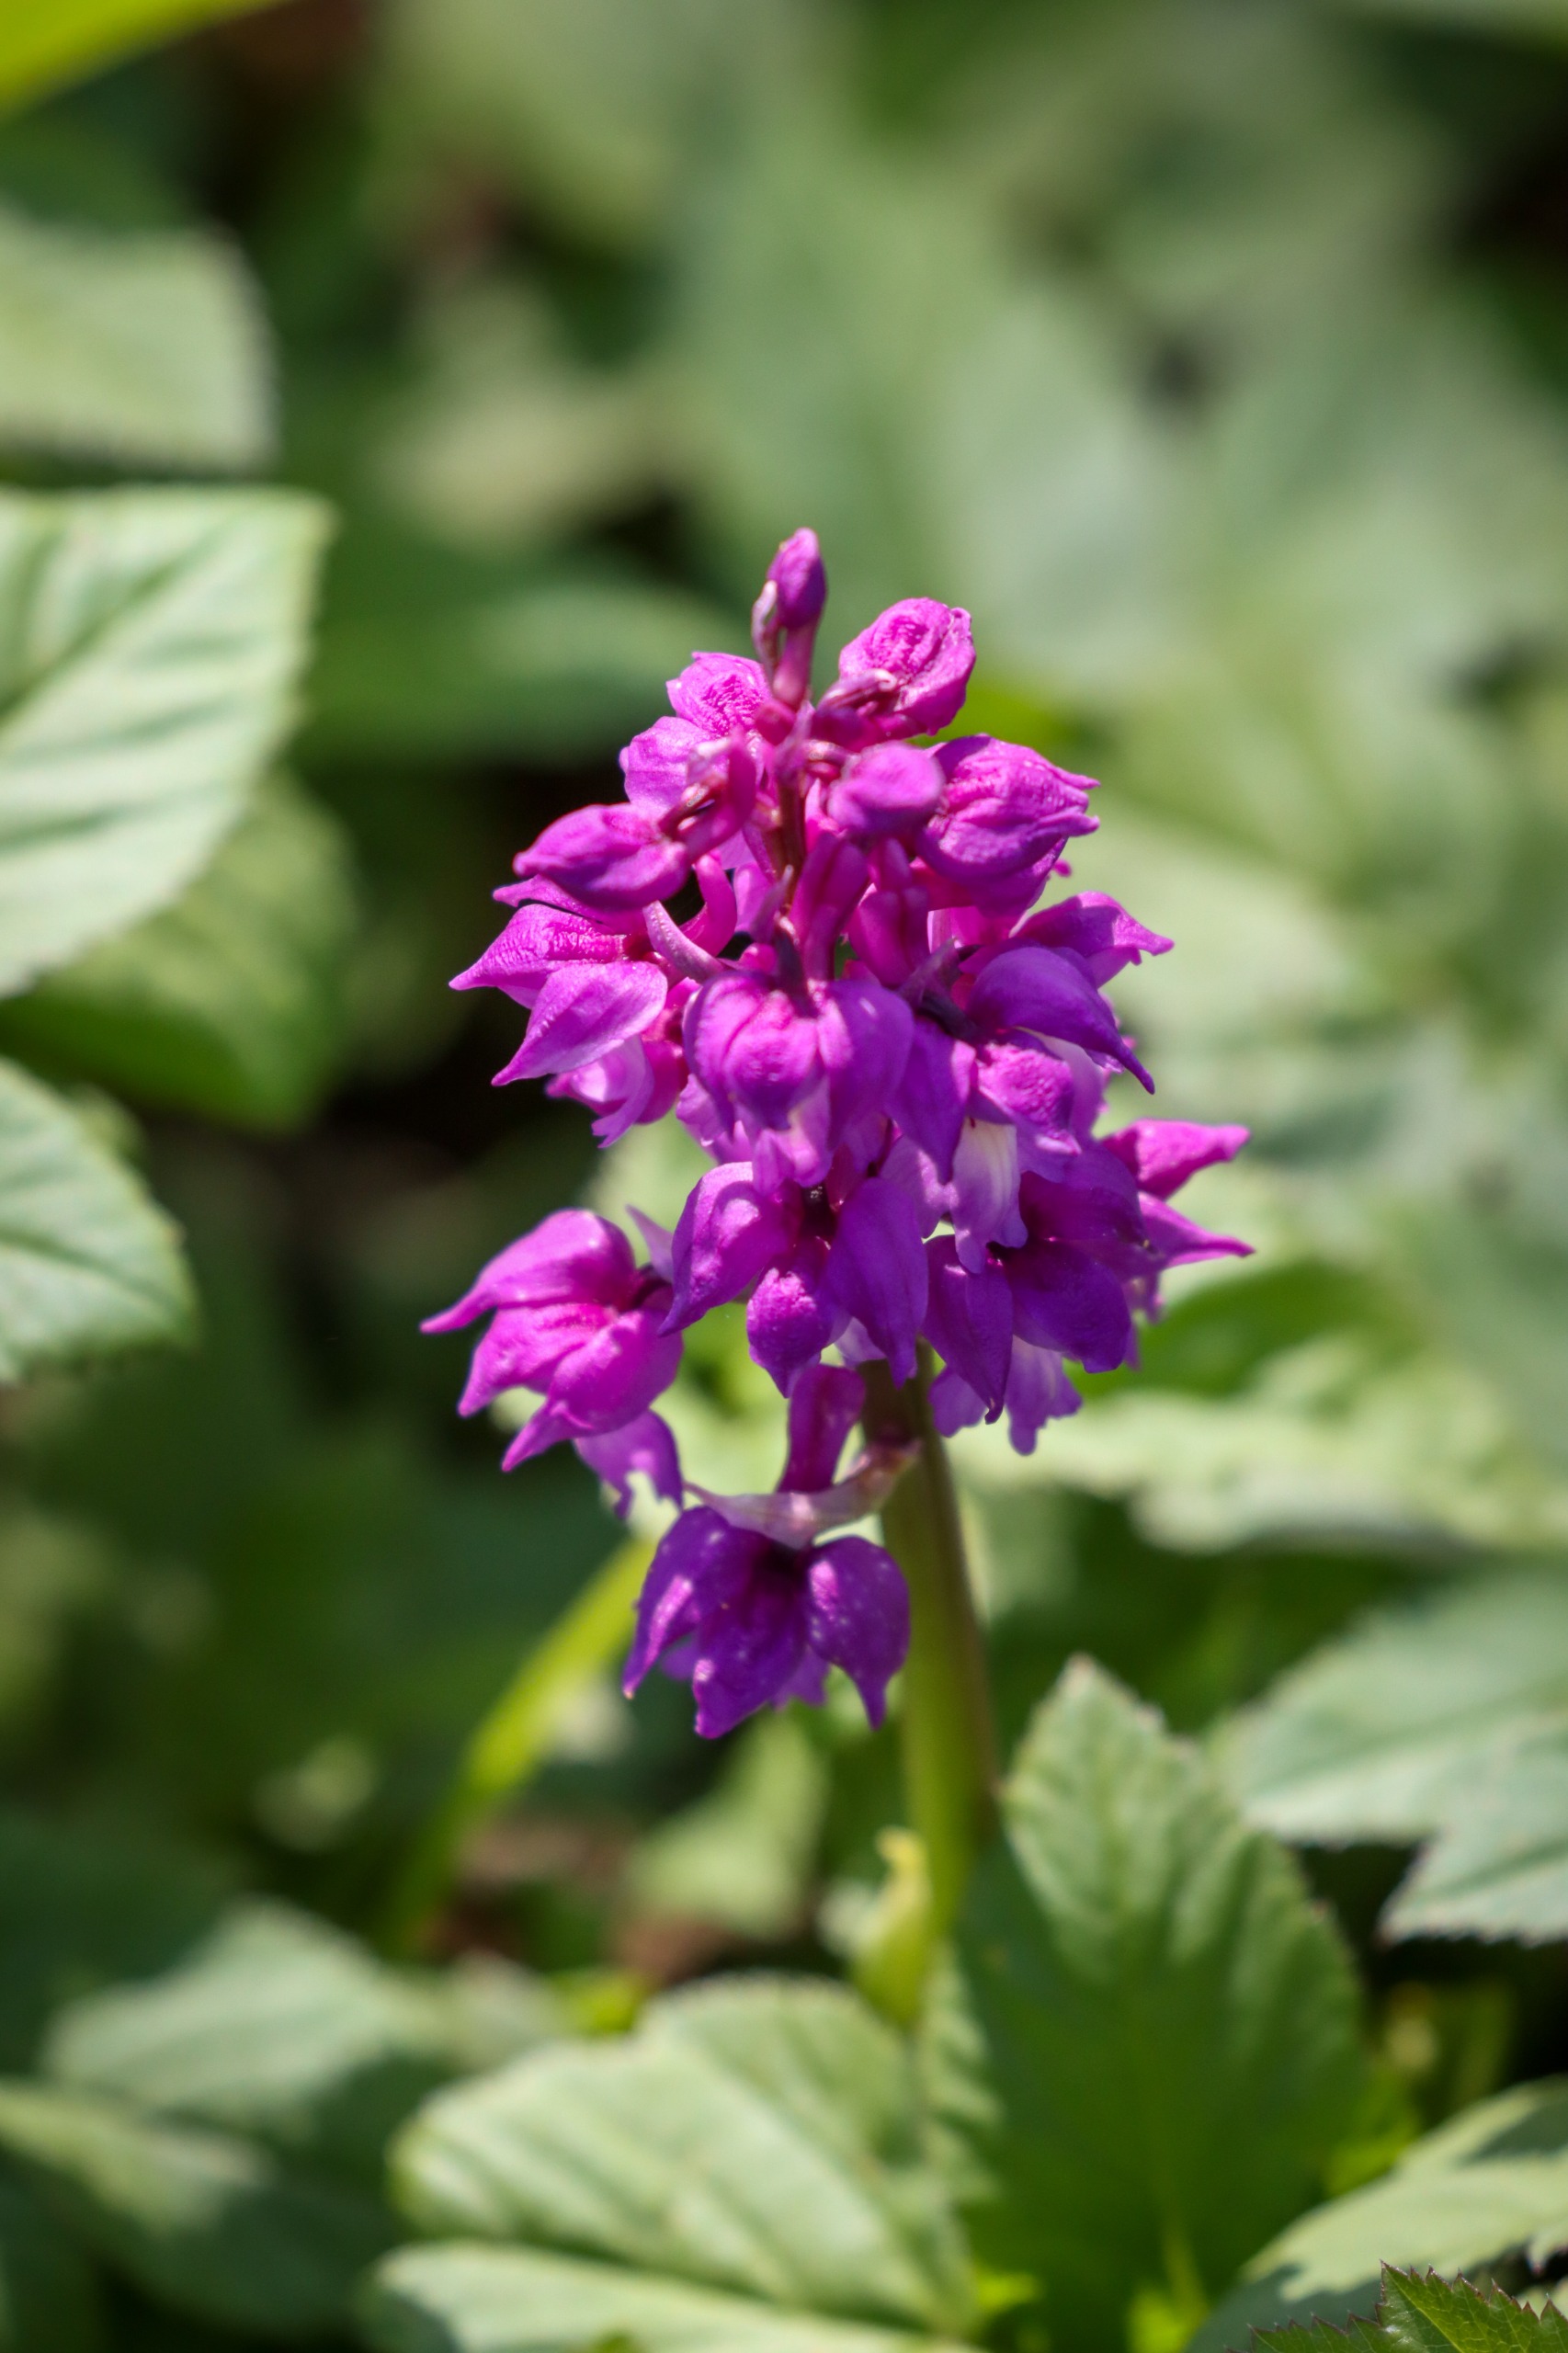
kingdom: Plantae
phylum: Tracheophyta
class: Liliopsida
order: Asparagales
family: Orchidaceae
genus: Orchis
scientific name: Orchis mascula
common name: Tyndakset gøgeurt
